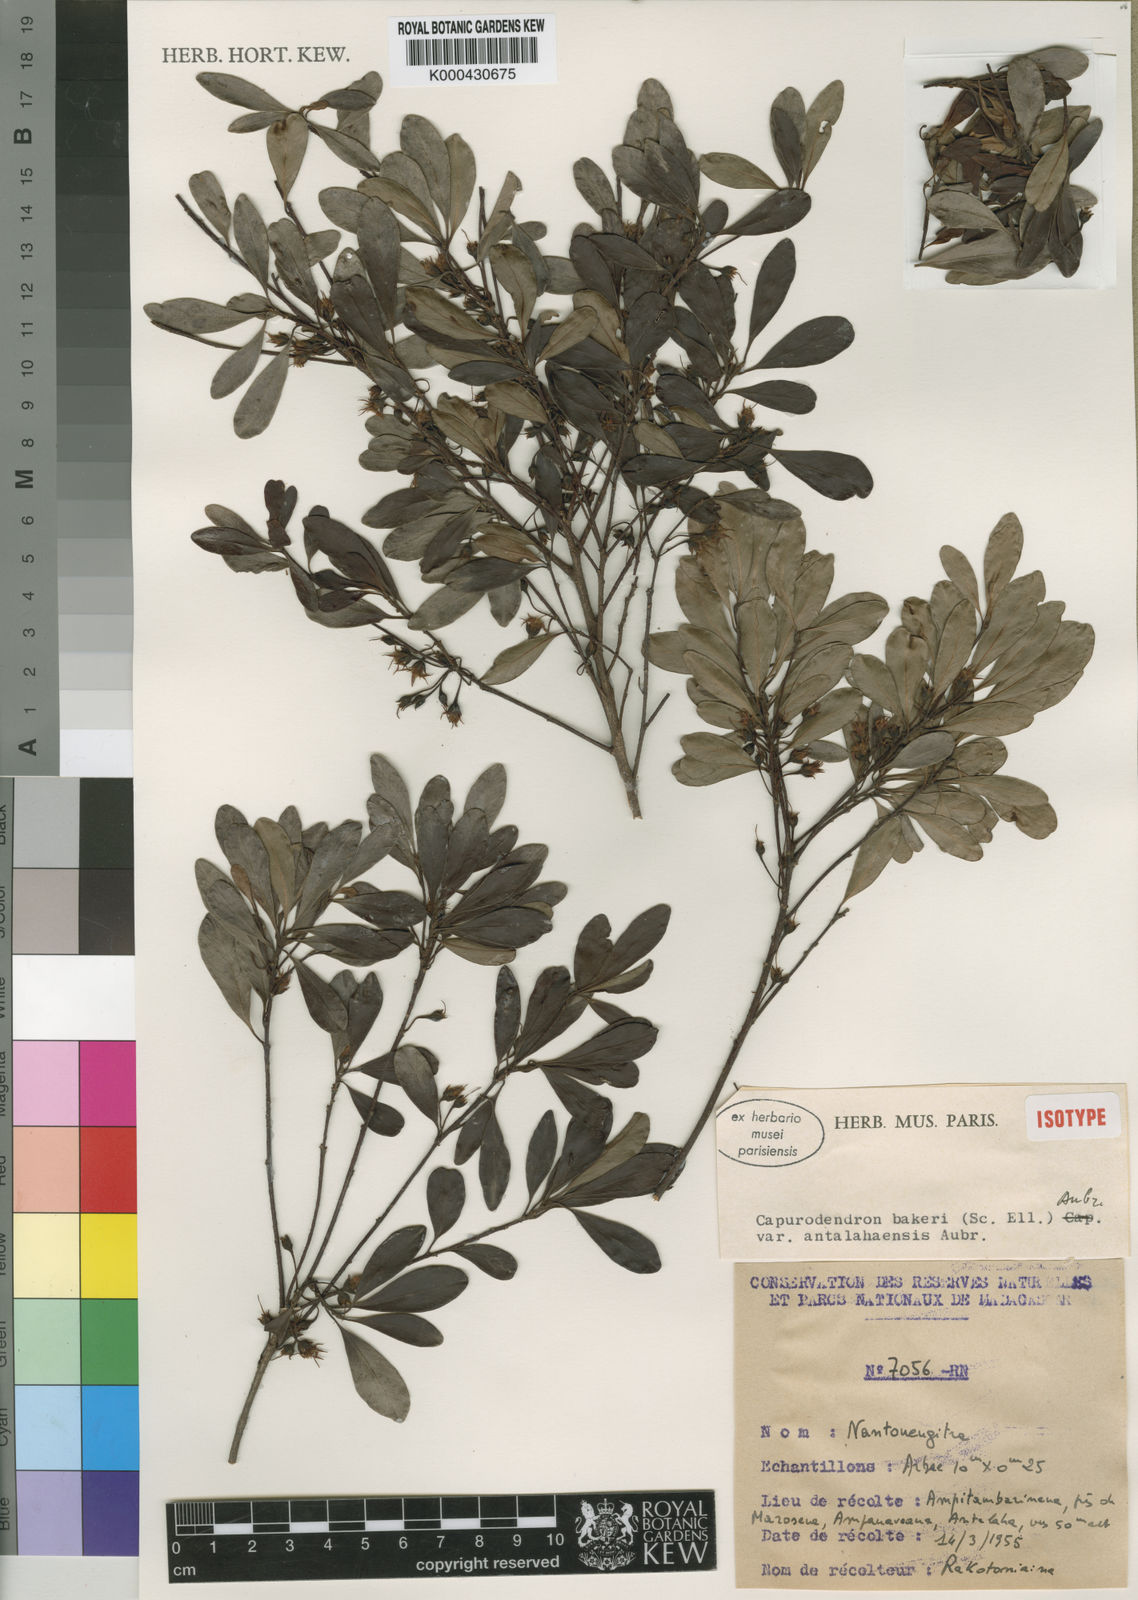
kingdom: Plantae
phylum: Tracheophyta
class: Magnoliopsida
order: Ericales
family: Sapotaceae
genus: Capurodendron
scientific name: Capurodendron
